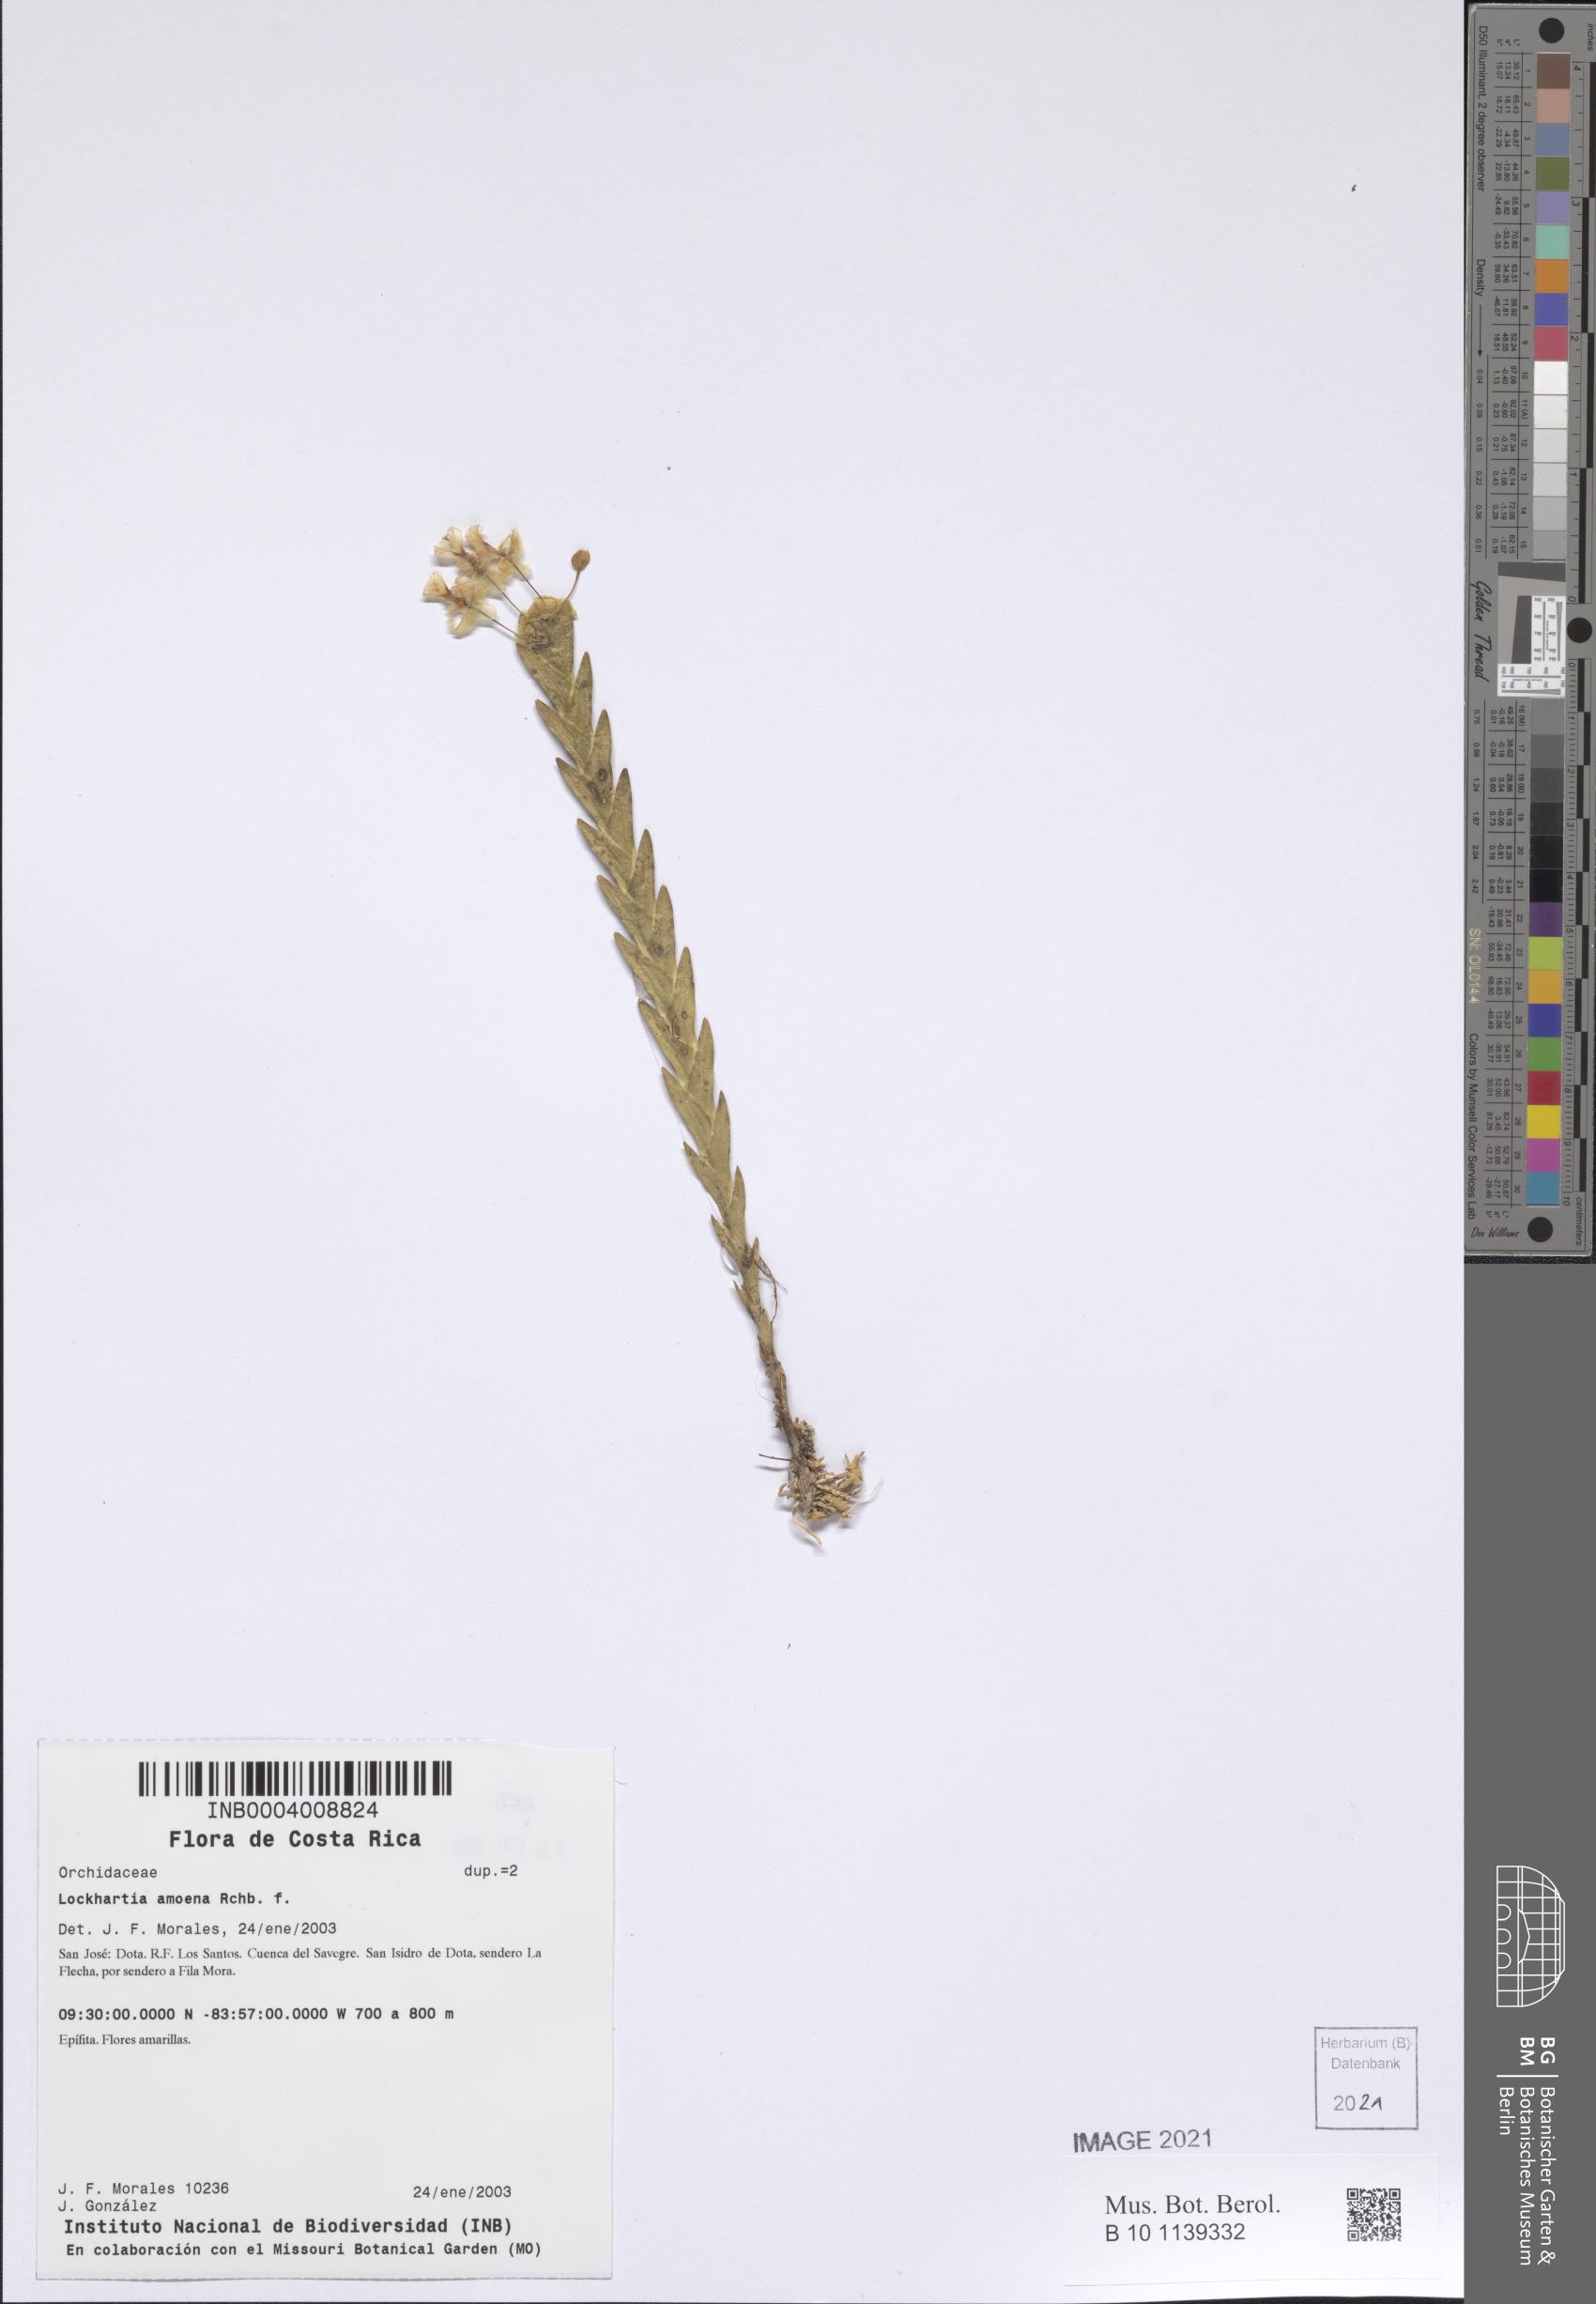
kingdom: Plantae
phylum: Tracheophyta
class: Liliopsida
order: Asparagales
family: Orchidaceae
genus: Lockhartia
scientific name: Lockhartia amoena
